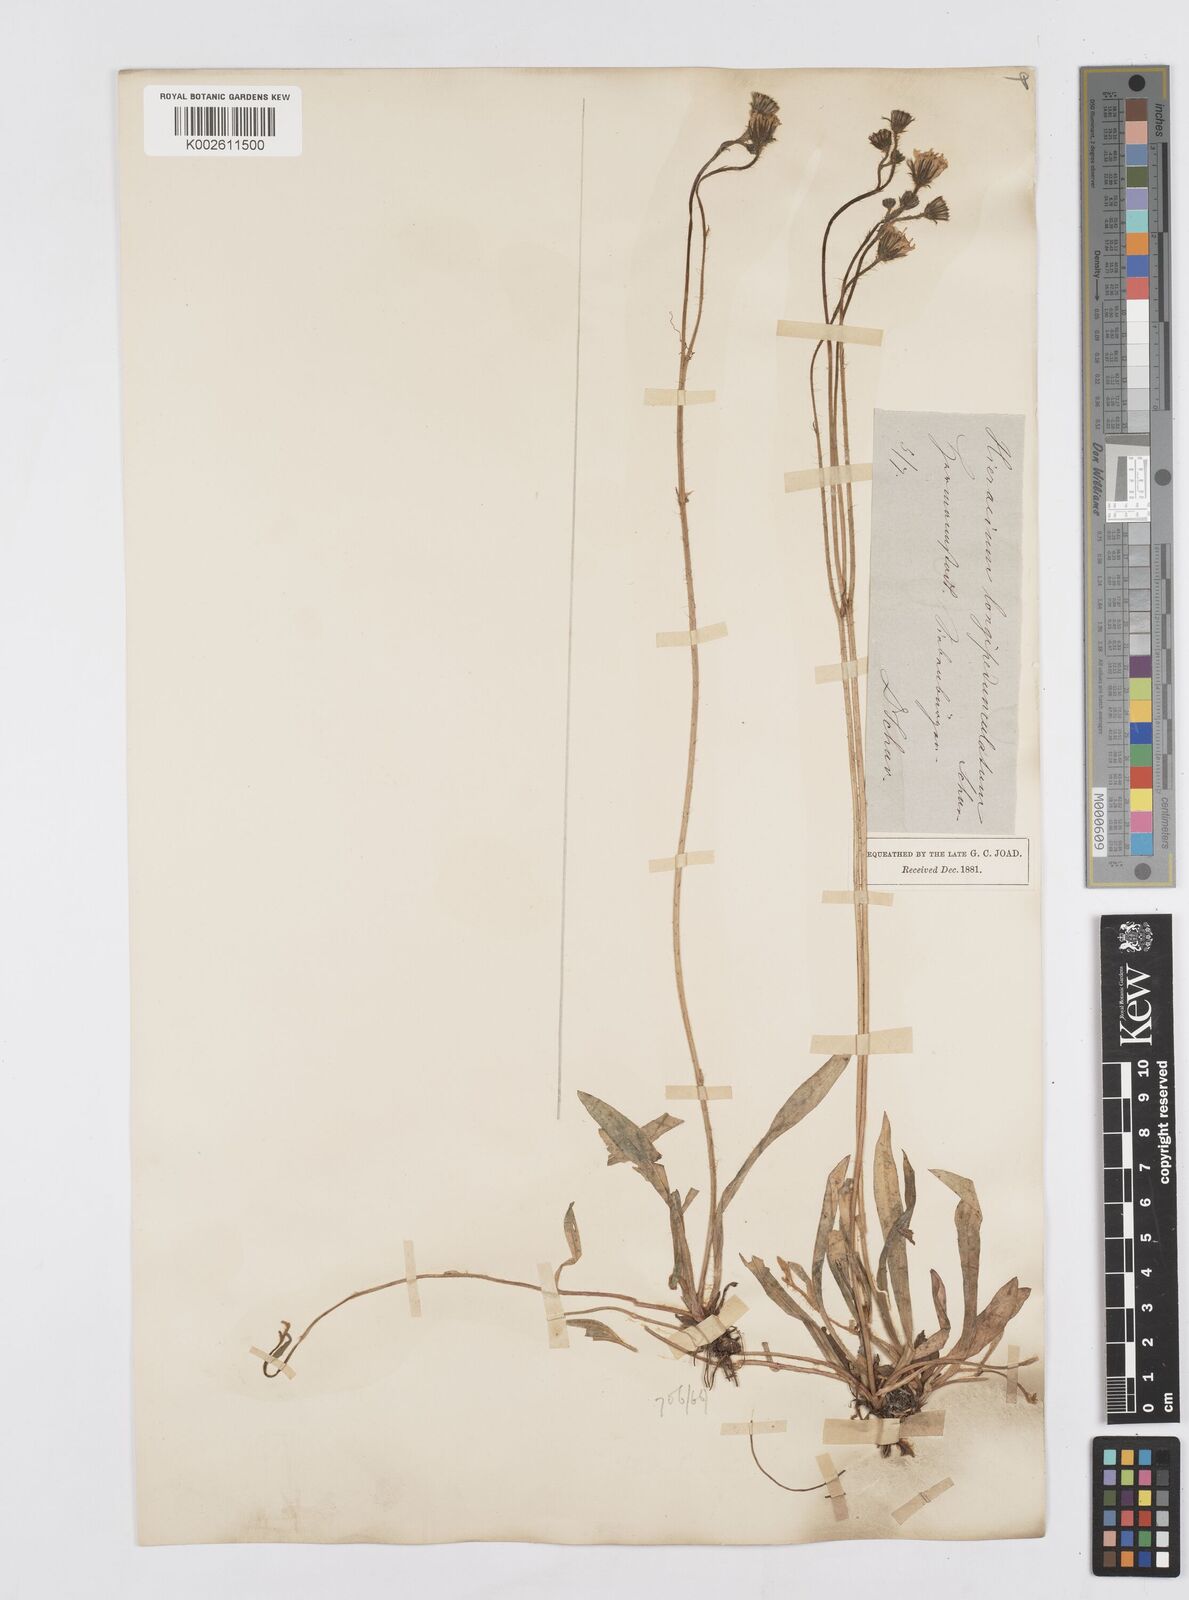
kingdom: Plantae
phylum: Tracheophyta
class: Magnoliopsida
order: Asterales
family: Asteraceae
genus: Pilosella
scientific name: Pilosella acutifolia
